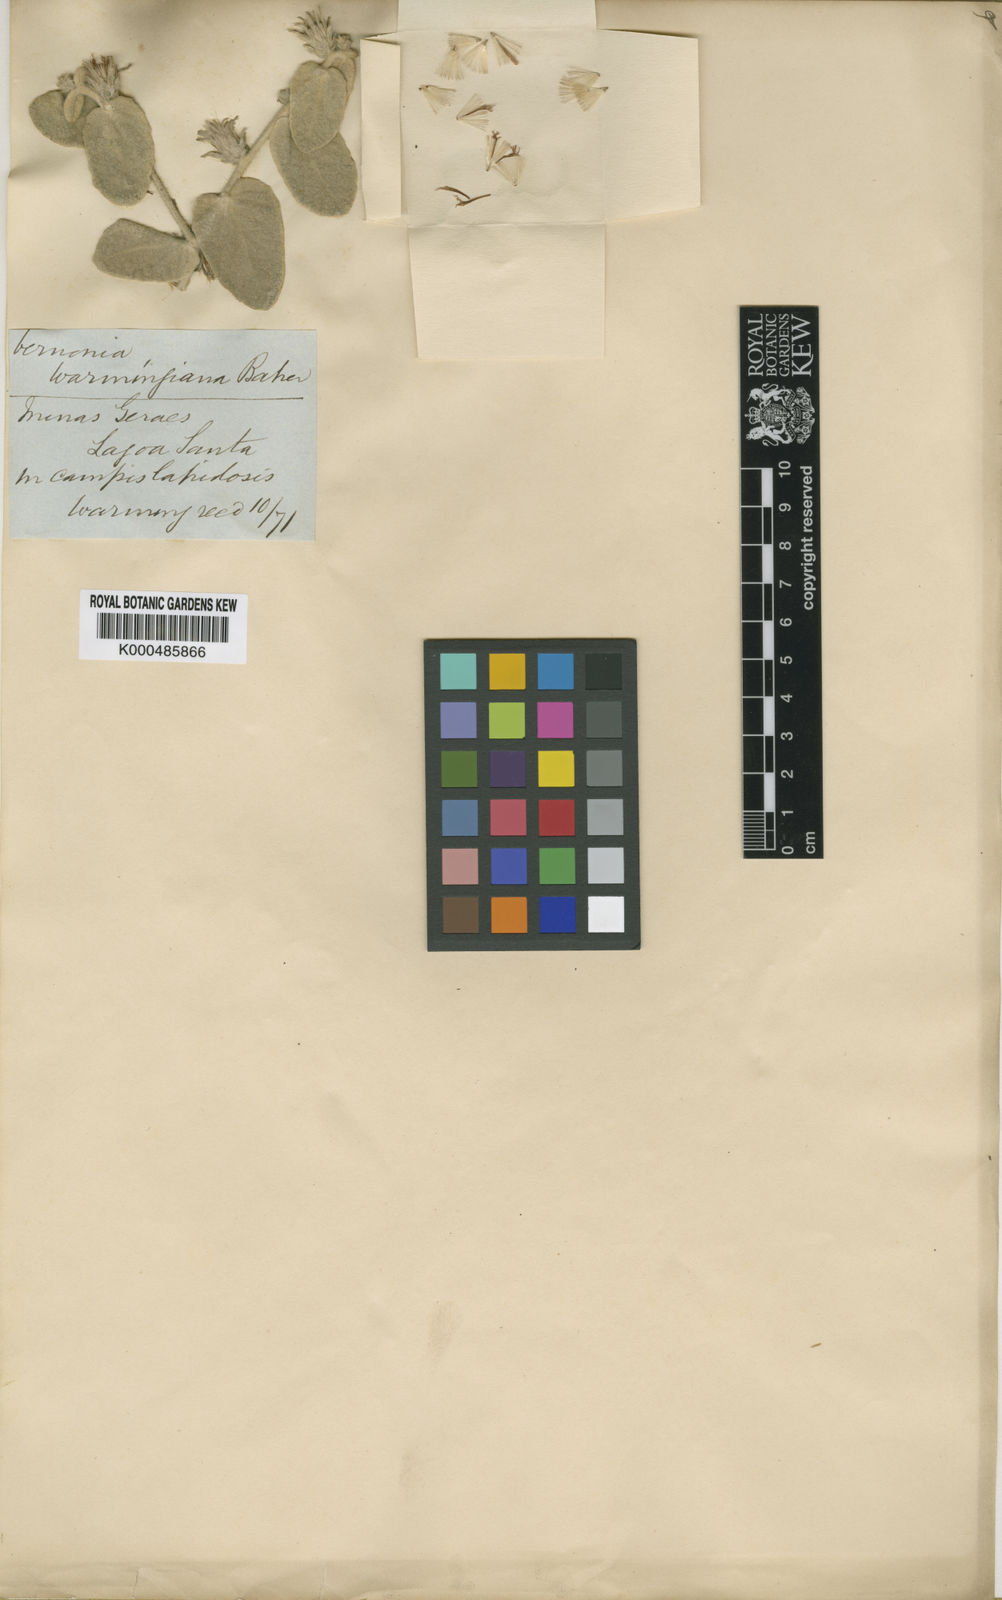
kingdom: Plantae
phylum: Tracheophyta
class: Magnoliopsida
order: Asterales
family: Asteraceae
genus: Lessingianthus
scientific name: Lessingianthus warmingianus
